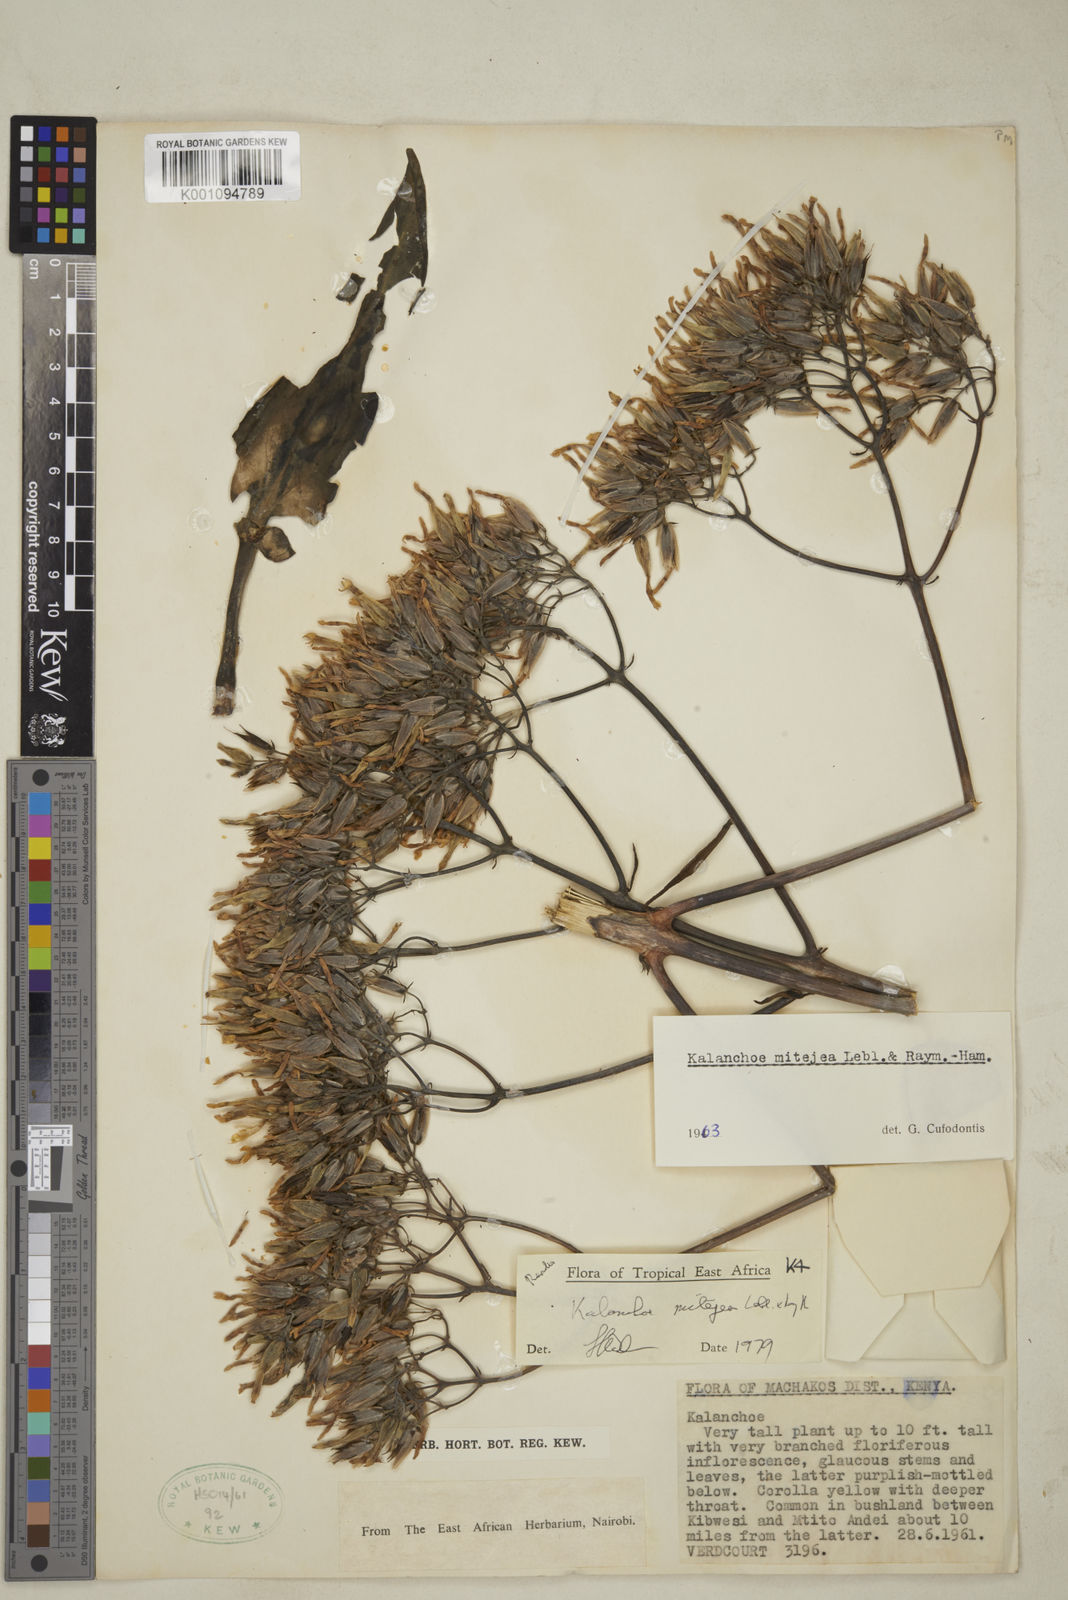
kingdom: Plantae
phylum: Tracheophyta
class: Magnoliopsida
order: Saxifragales
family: Crassulaceae
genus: Kalanchoe
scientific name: Kalanchoe mitejea
